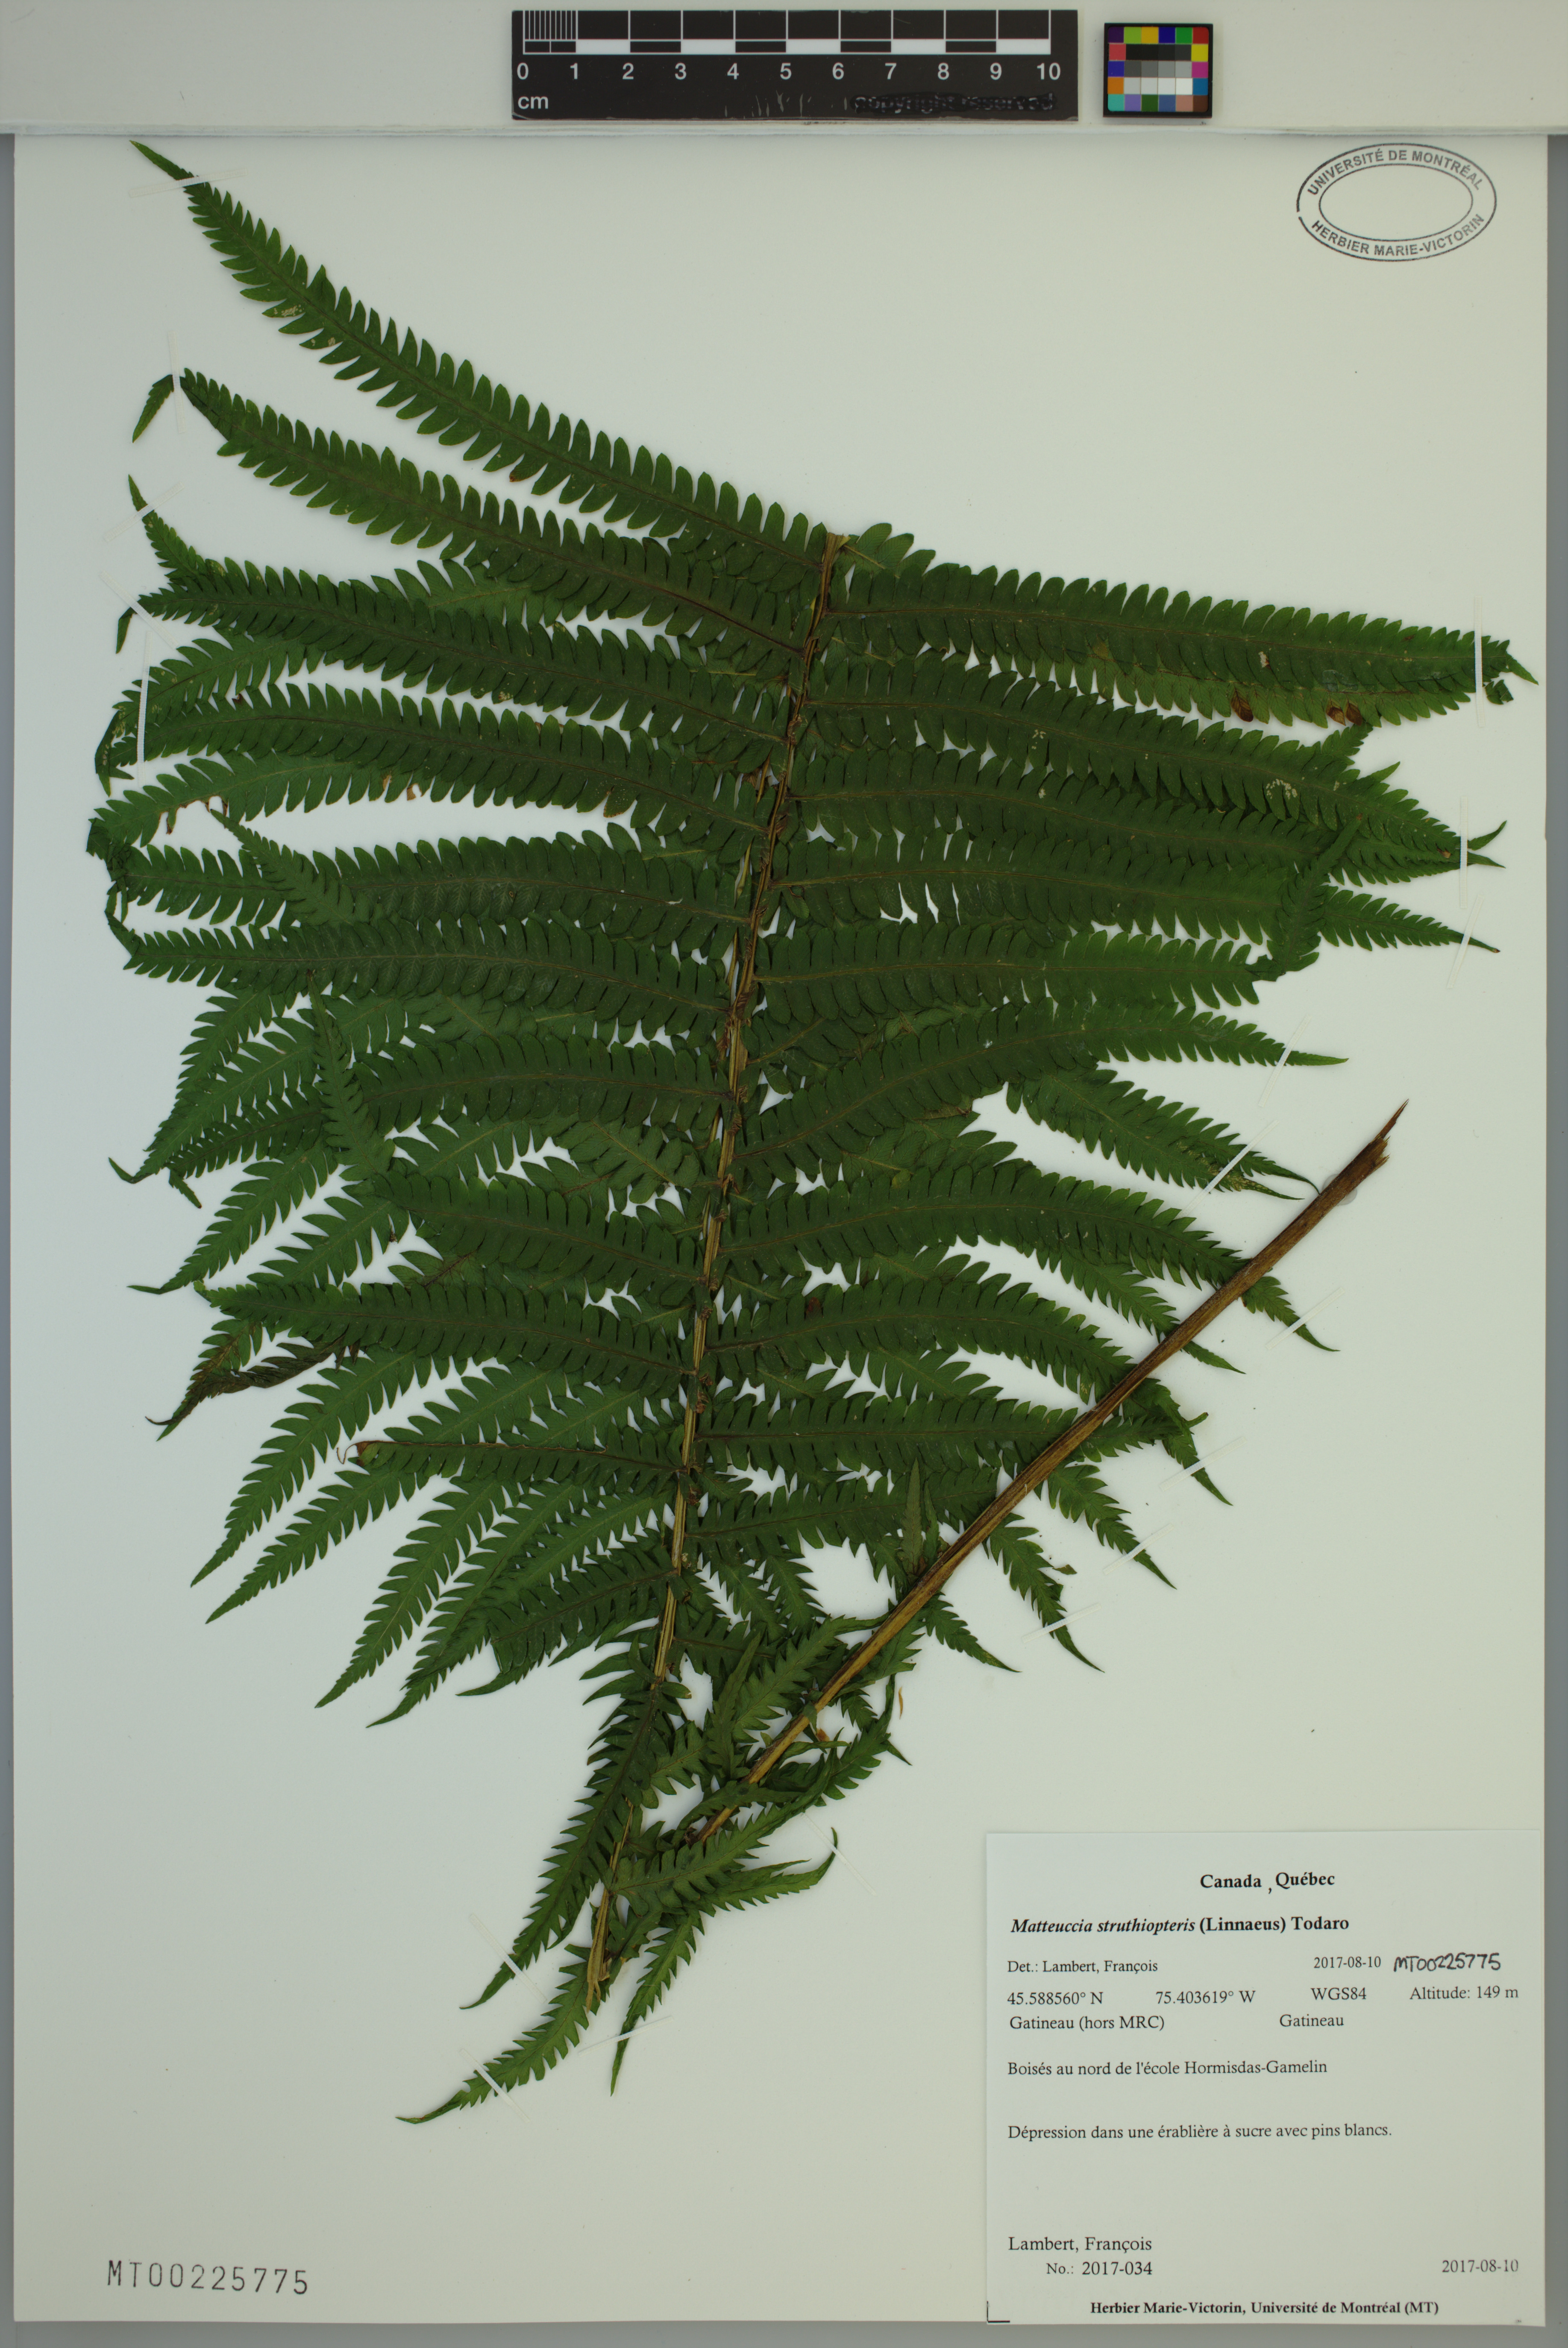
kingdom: Plantae
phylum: Tracheophyta
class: Polypodiopsida
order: Polypodiales
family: Onocleaceae
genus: Matteuccia
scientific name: Matteuccia struthiopteris
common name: Ostrich fern
